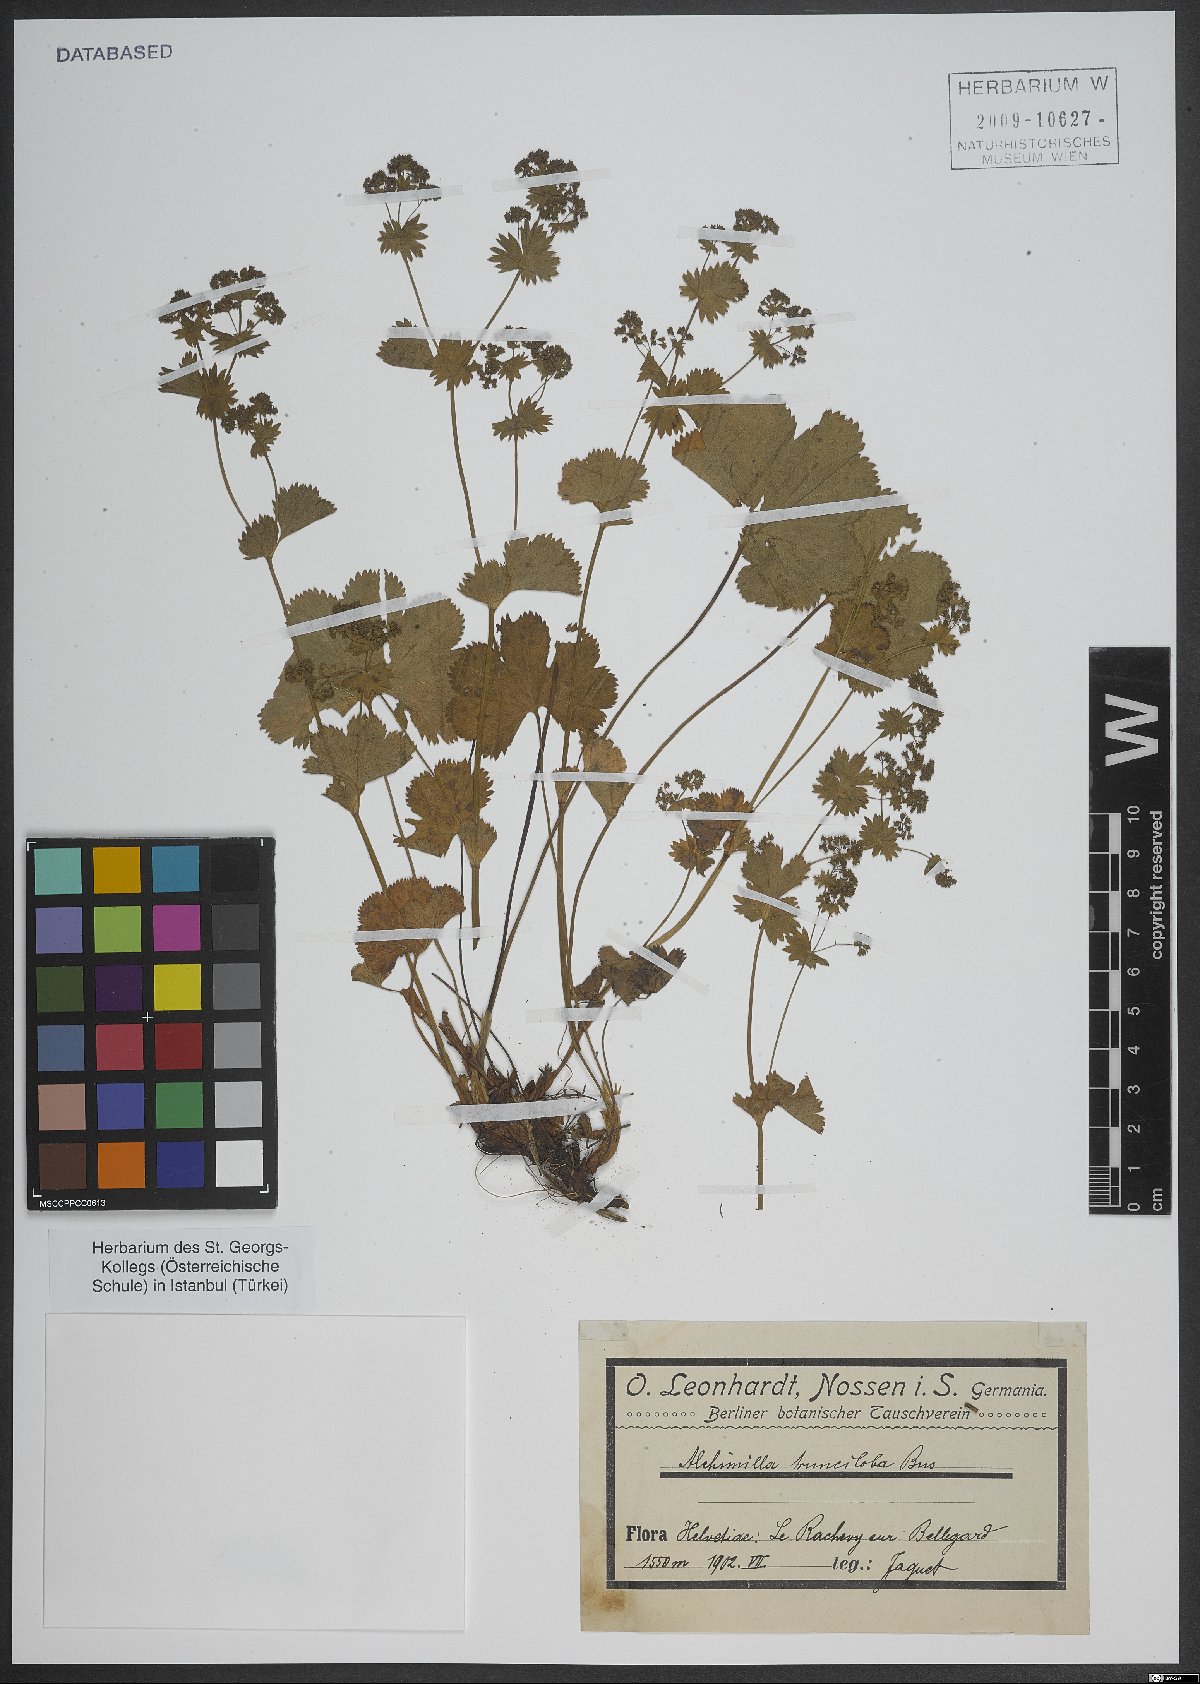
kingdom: Plantae
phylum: Tracheophyta
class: Magnoliopsida
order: Rosales
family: Rosaceae
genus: Alchemilla
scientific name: Alchemilla trunciloba
